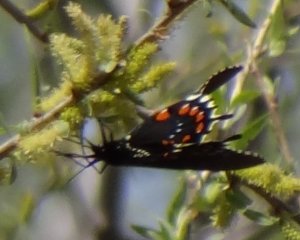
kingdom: Animalia
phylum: Arthropoda
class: Insecta
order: Lepidoptera
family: Papilionidae
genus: Battus
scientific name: Battus philenor
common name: Pipevine Swallowtail
